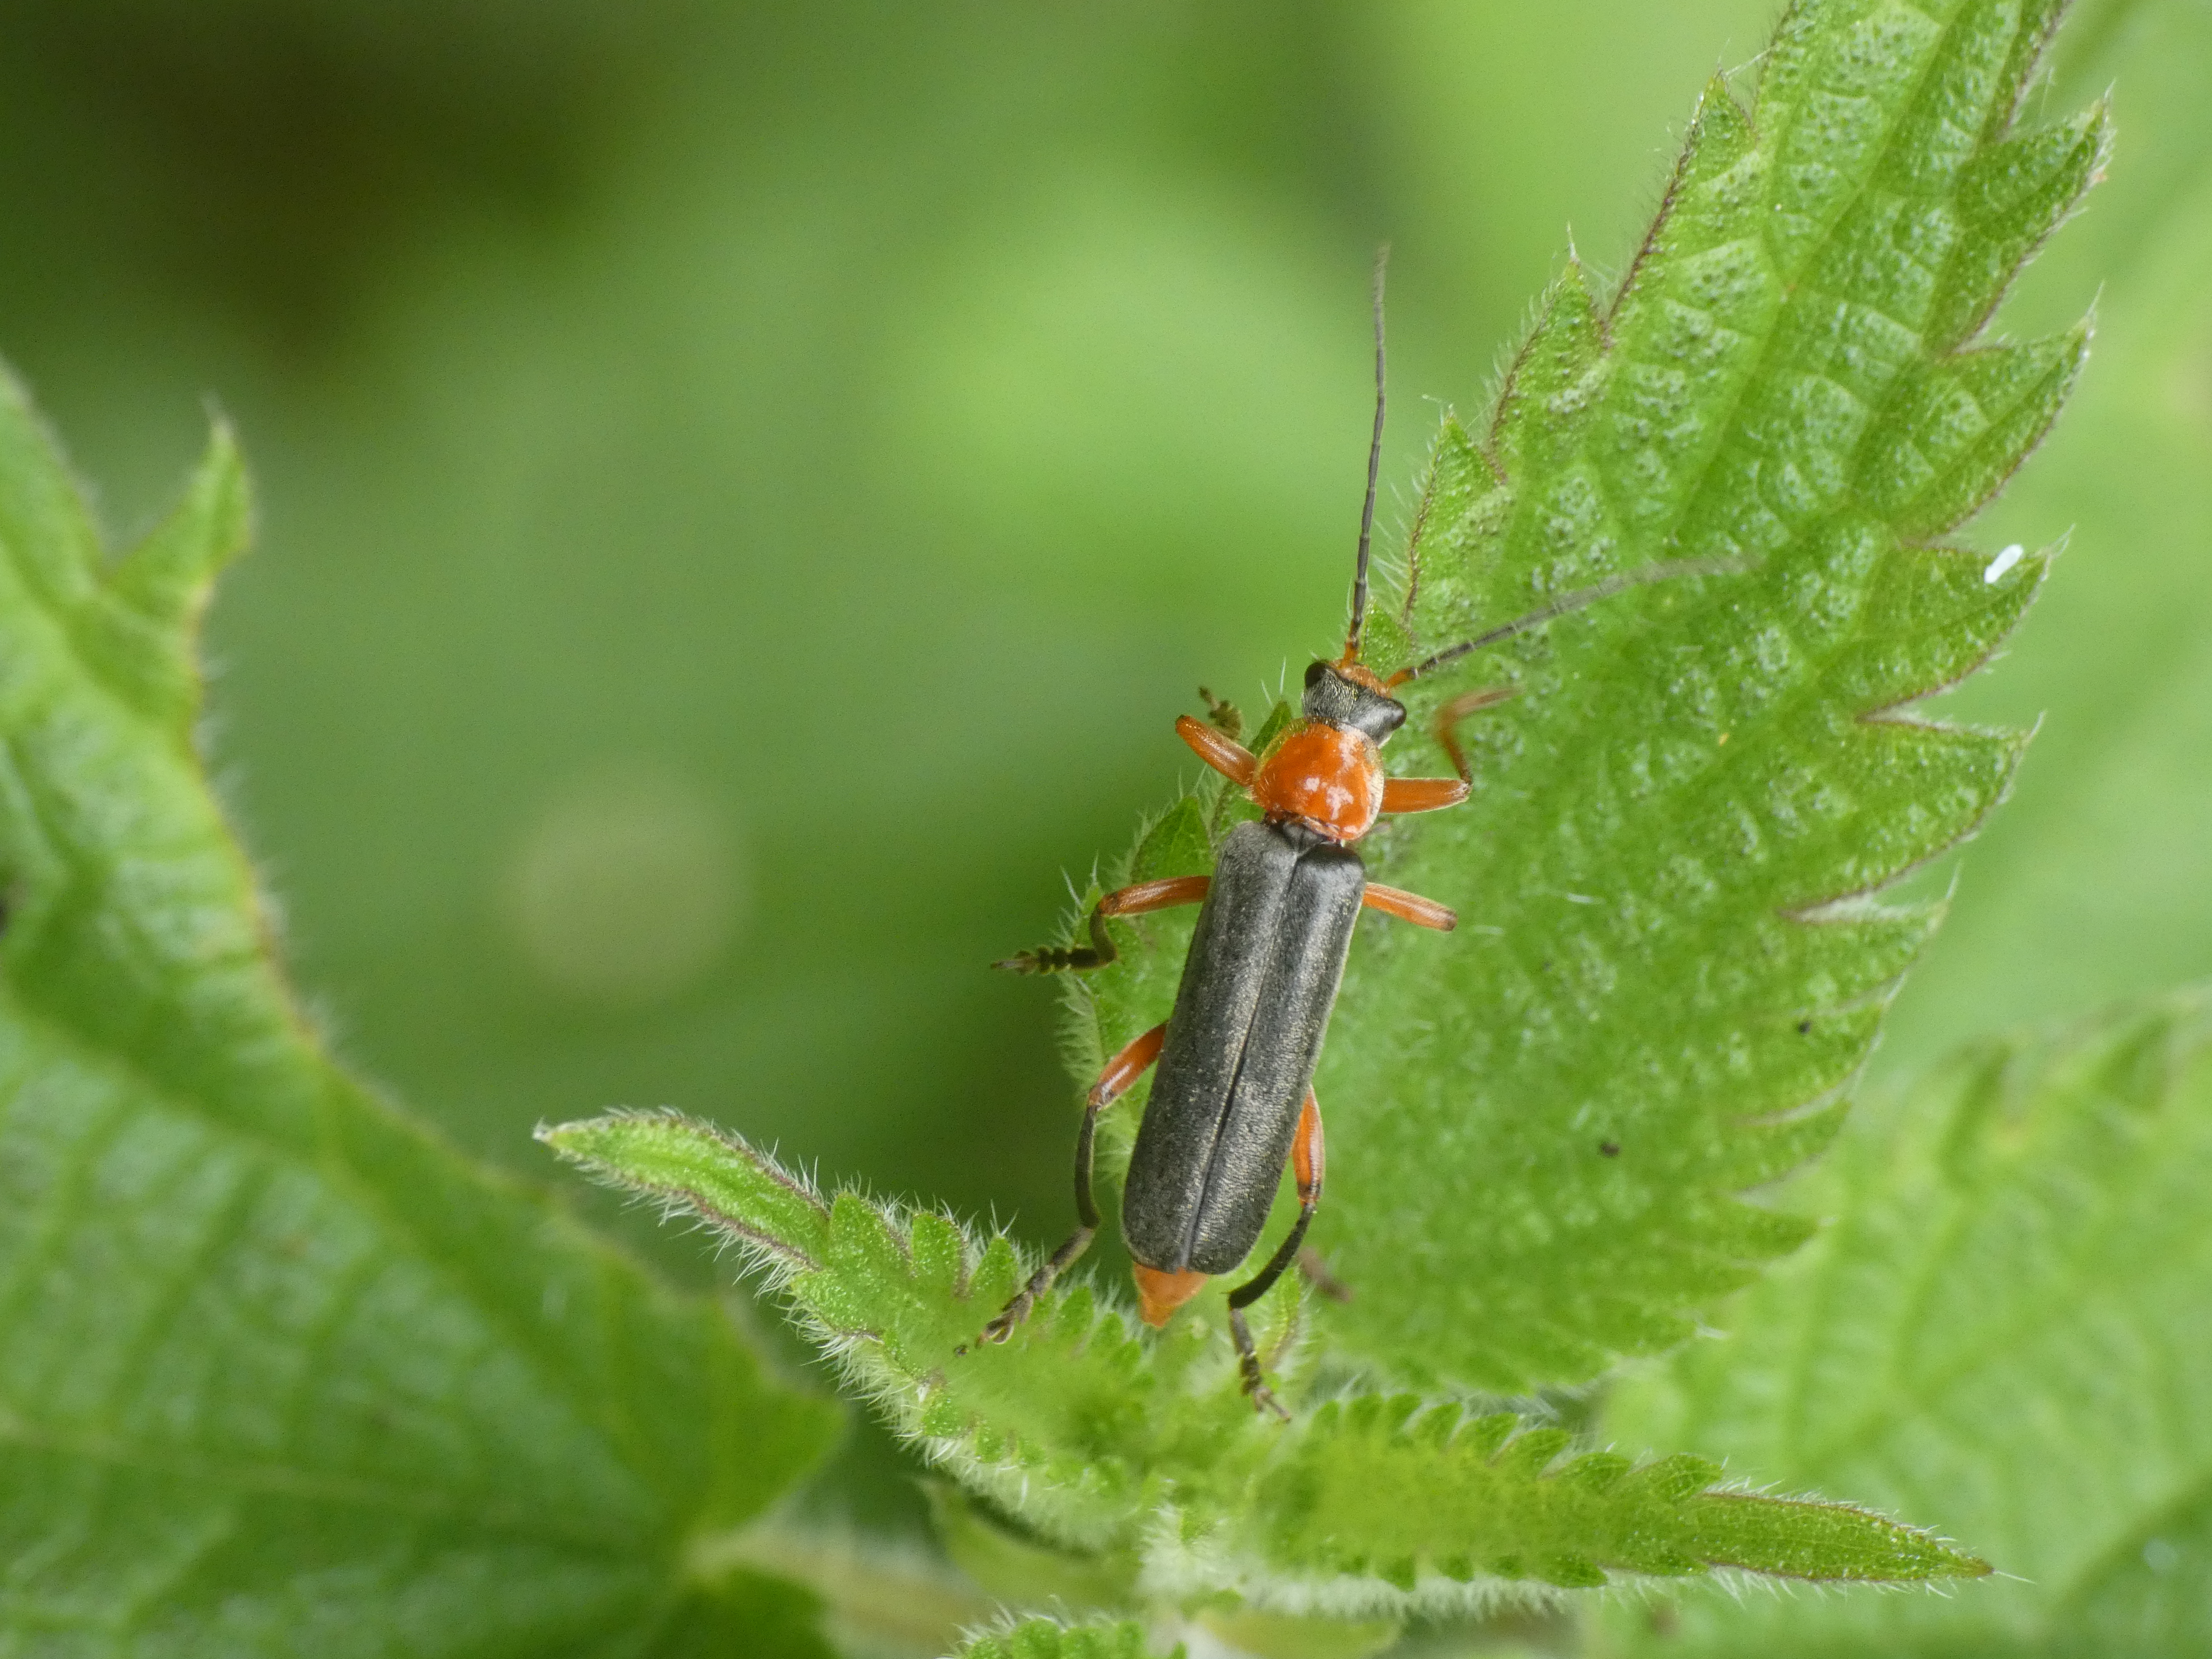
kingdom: Animalia
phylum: Arthropoda
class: Insecta
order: Coleoptera
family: Cantharidae
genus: Cantharis
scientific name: Cantharis pellucida
